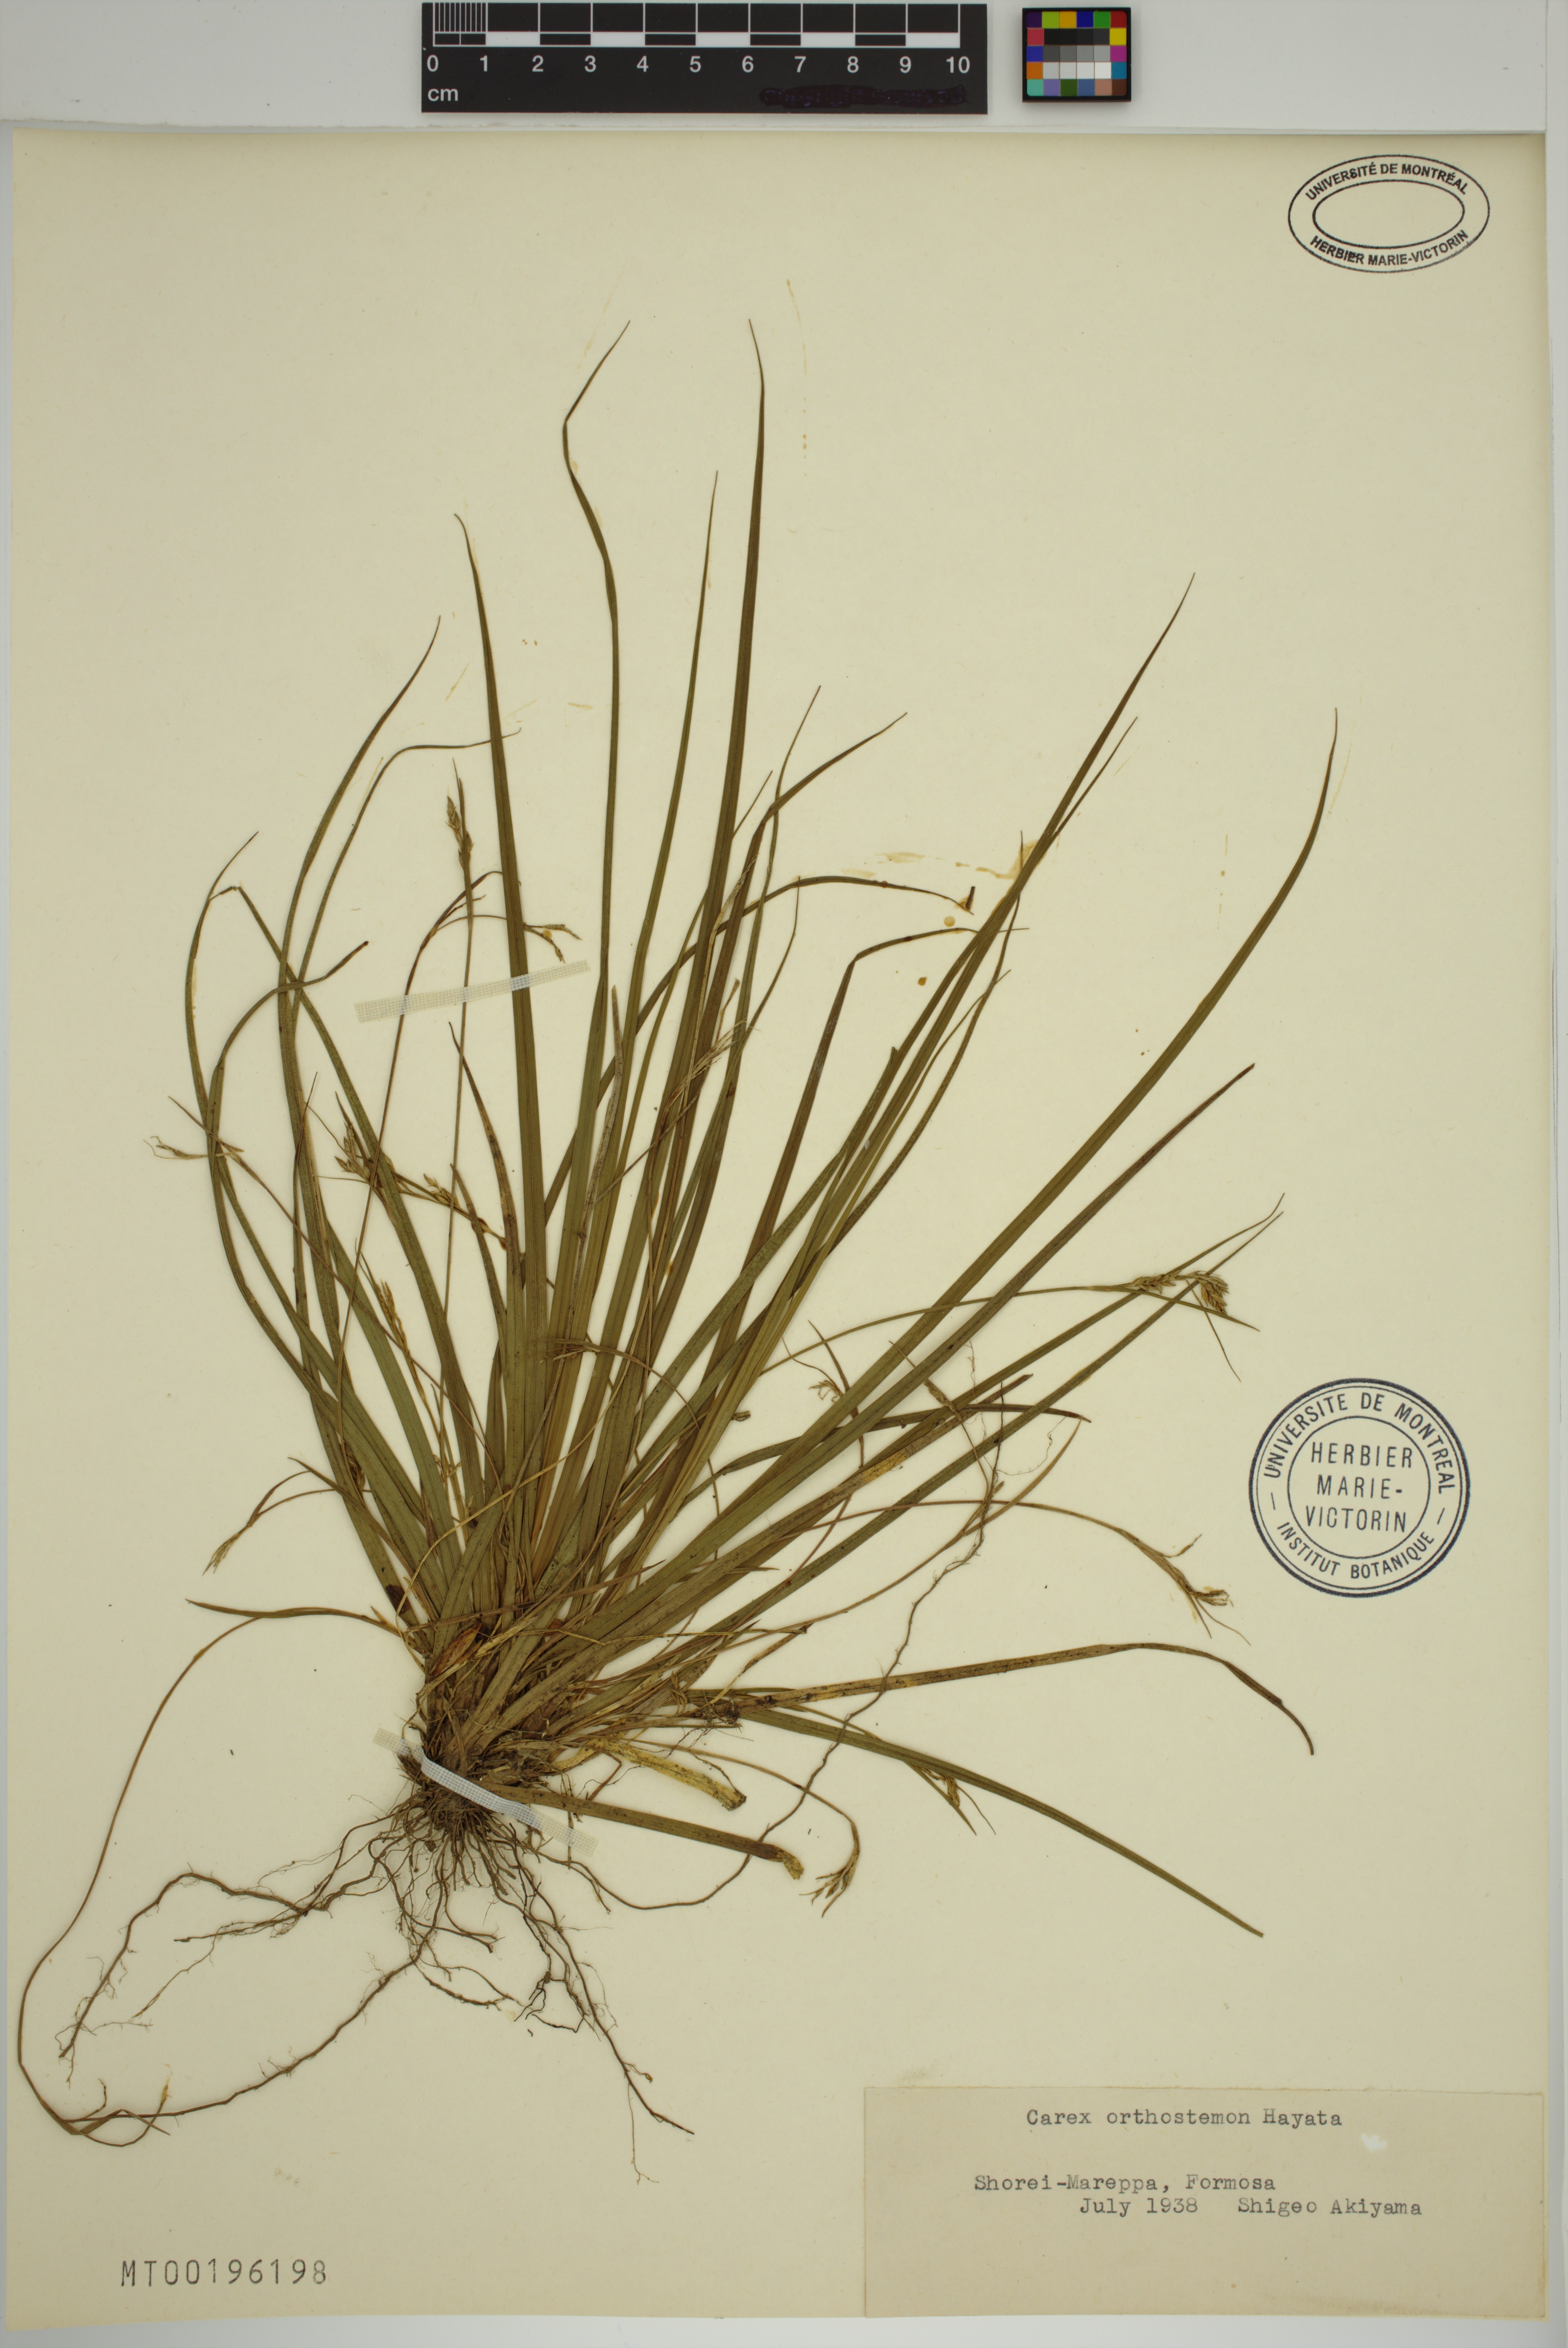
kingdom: Plantae
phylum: Tracheophyta
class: Liliopsida
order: Poales
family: Cyperaceae
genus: Carex
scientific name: Carex orthostemon
